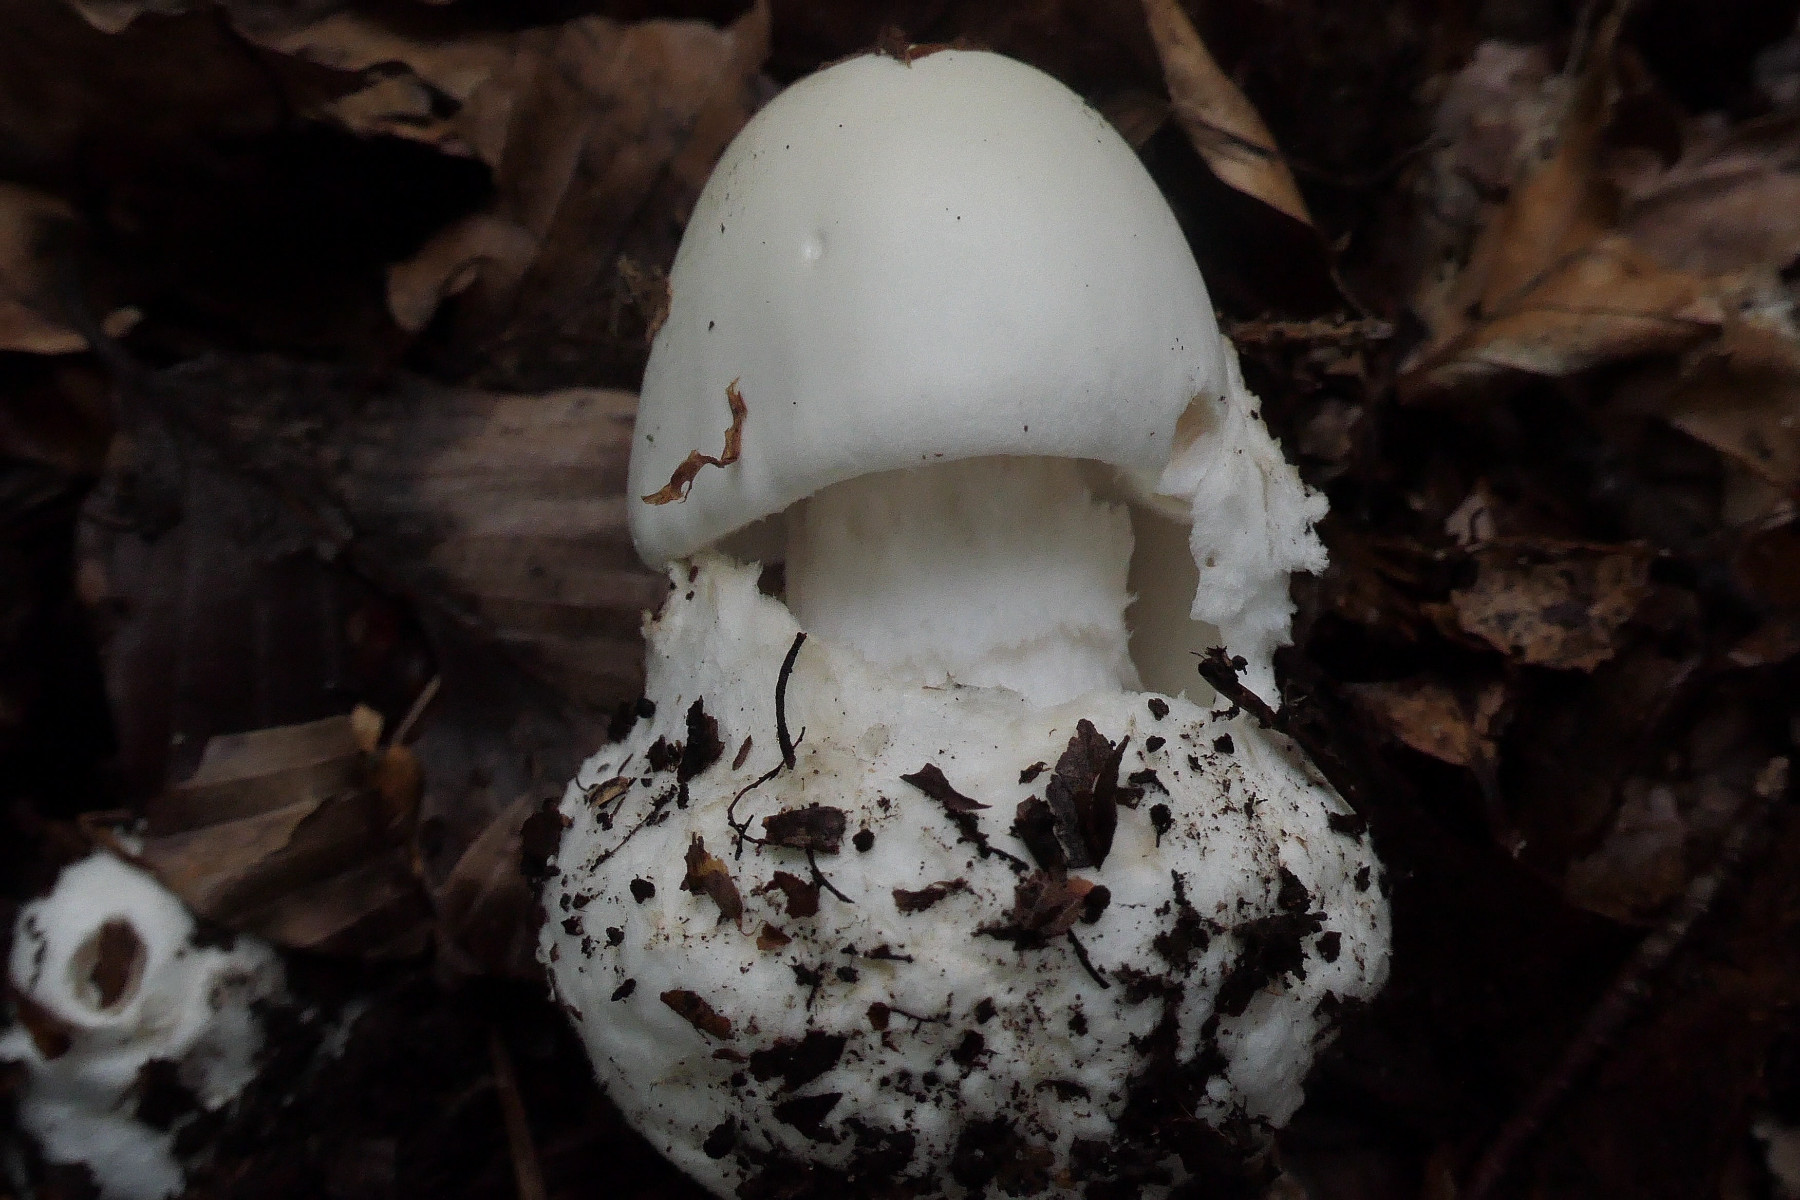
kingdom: Fungi
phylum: Basidiomycota
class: Agaricomycetes
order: Agaricales
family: Amanitaceae
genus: Amanita
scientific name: Amanita virosa
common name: snehvid fluesvamp
